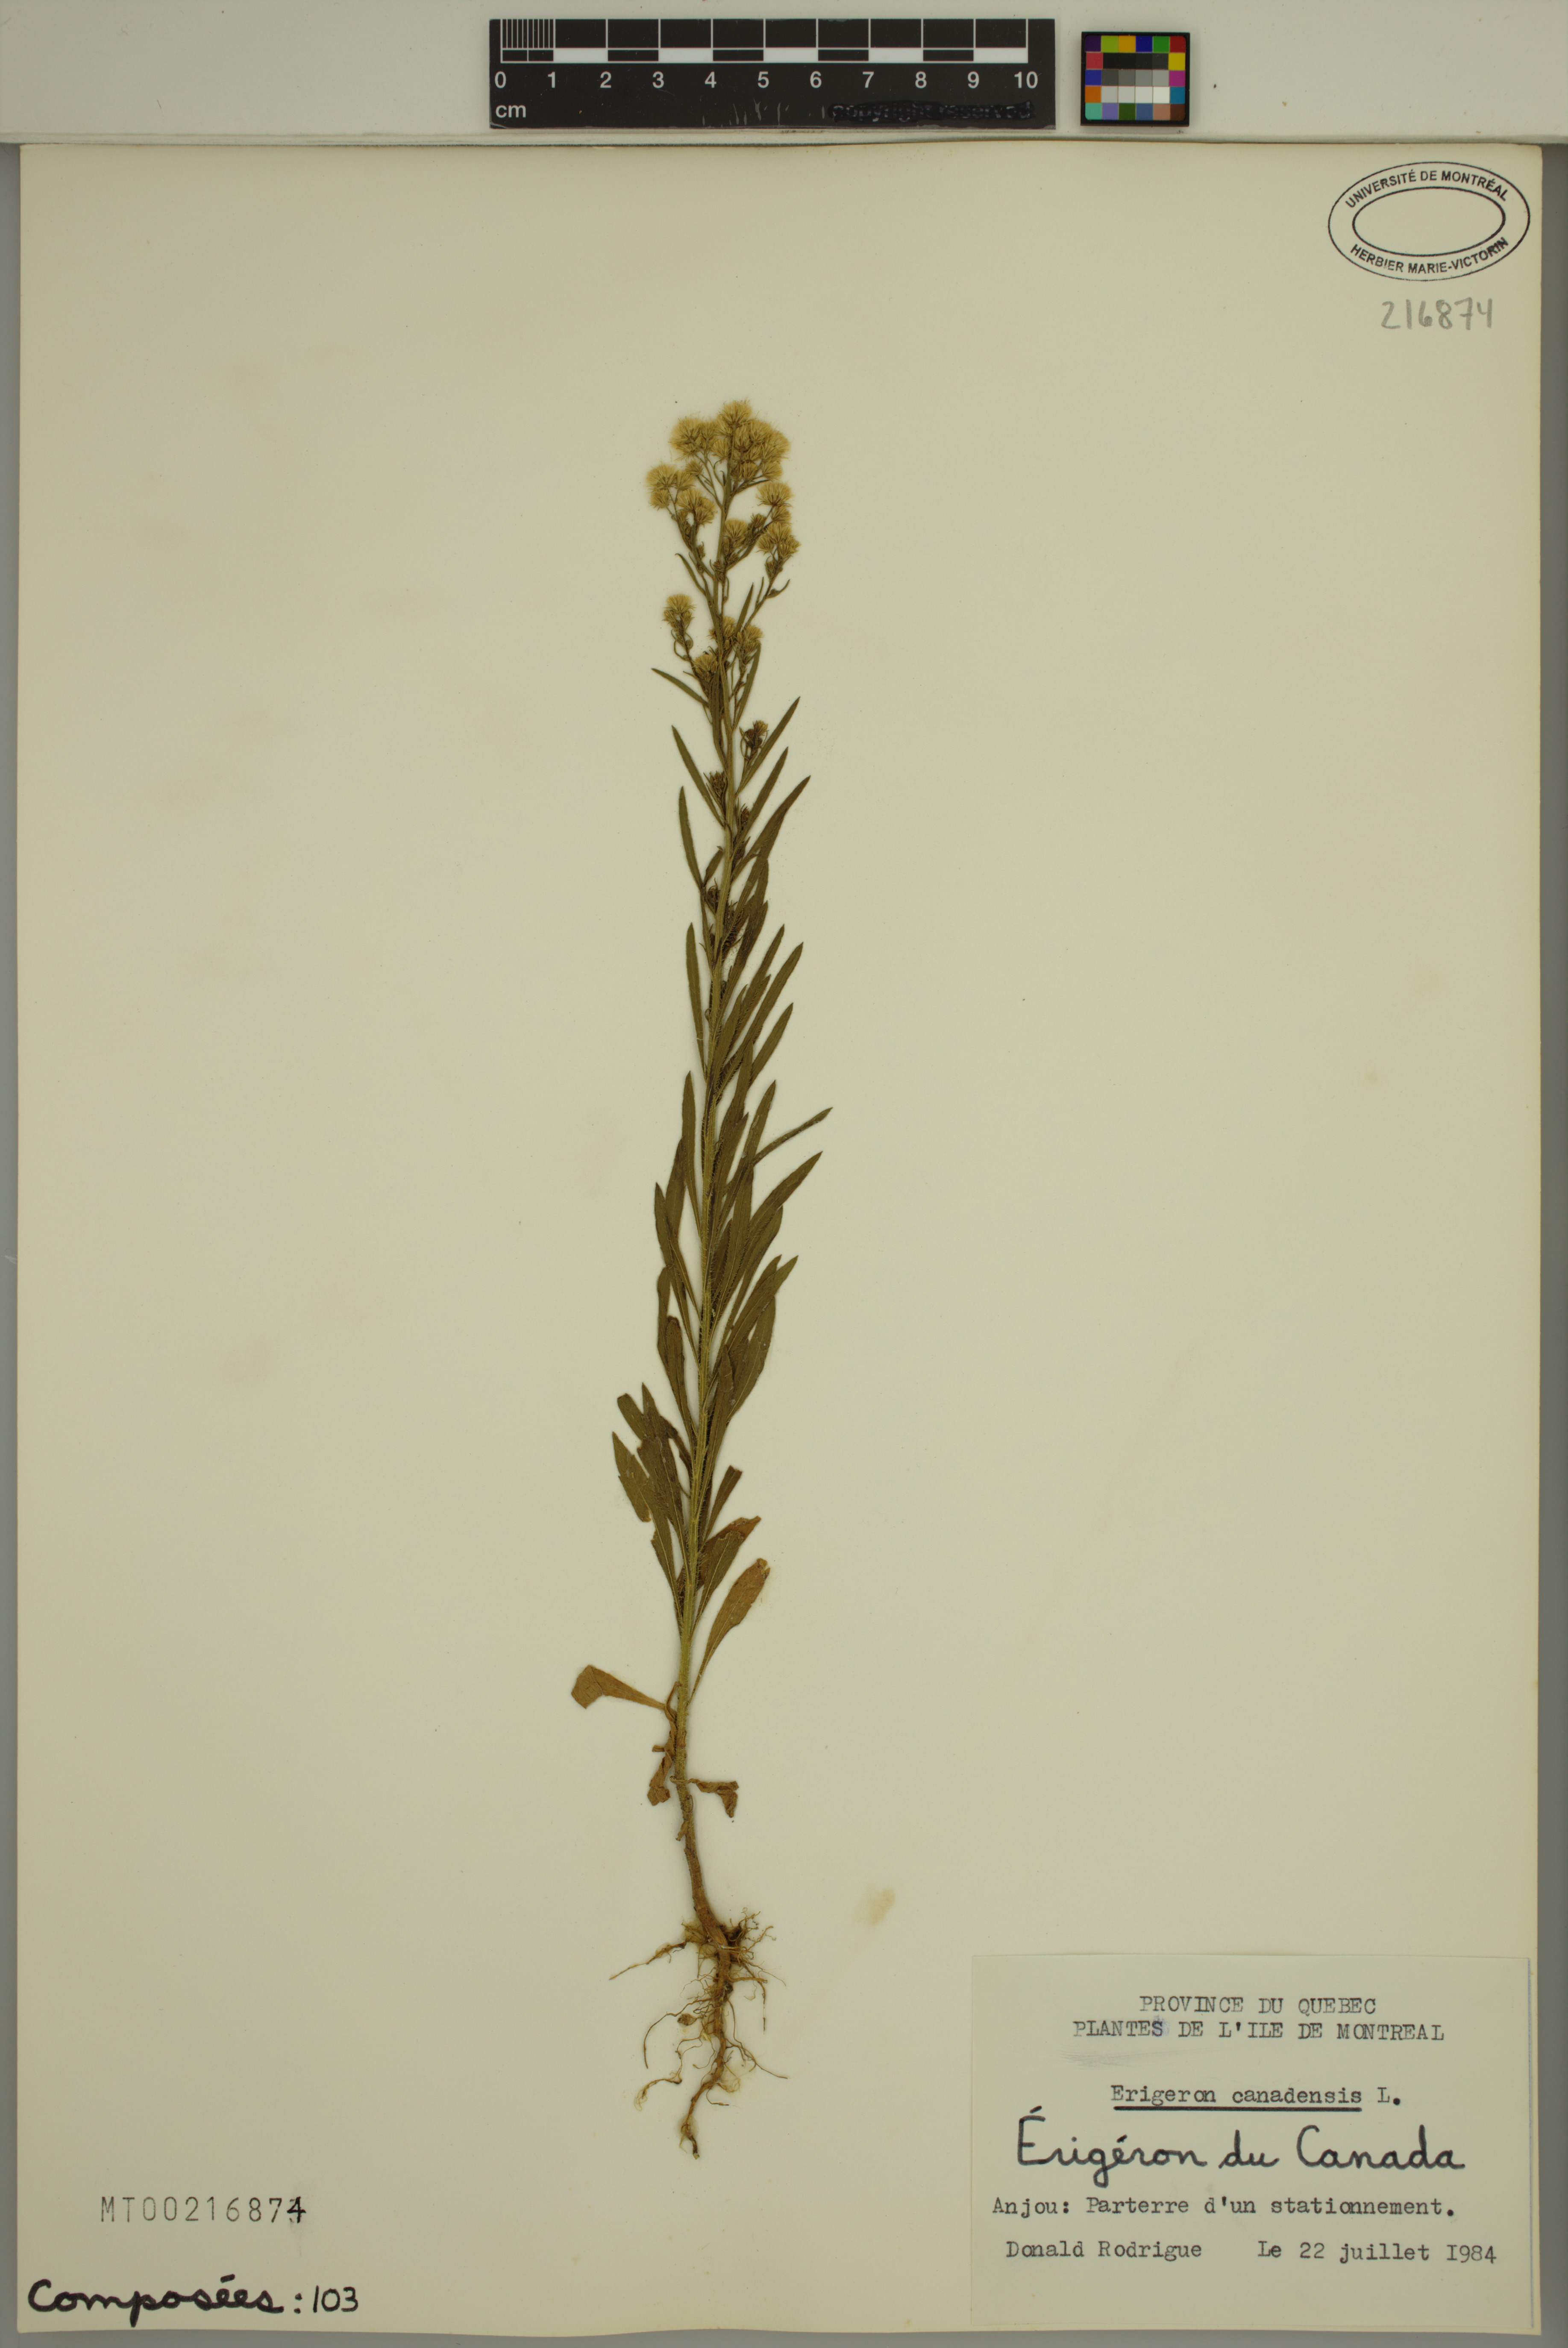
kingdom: Plantae
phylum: Tracheophyta
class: Magnoliopsida
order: Asterales
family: Asteraceae
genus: Erigeron
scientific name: Erigeron canadensis
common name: Canadian fleabane
